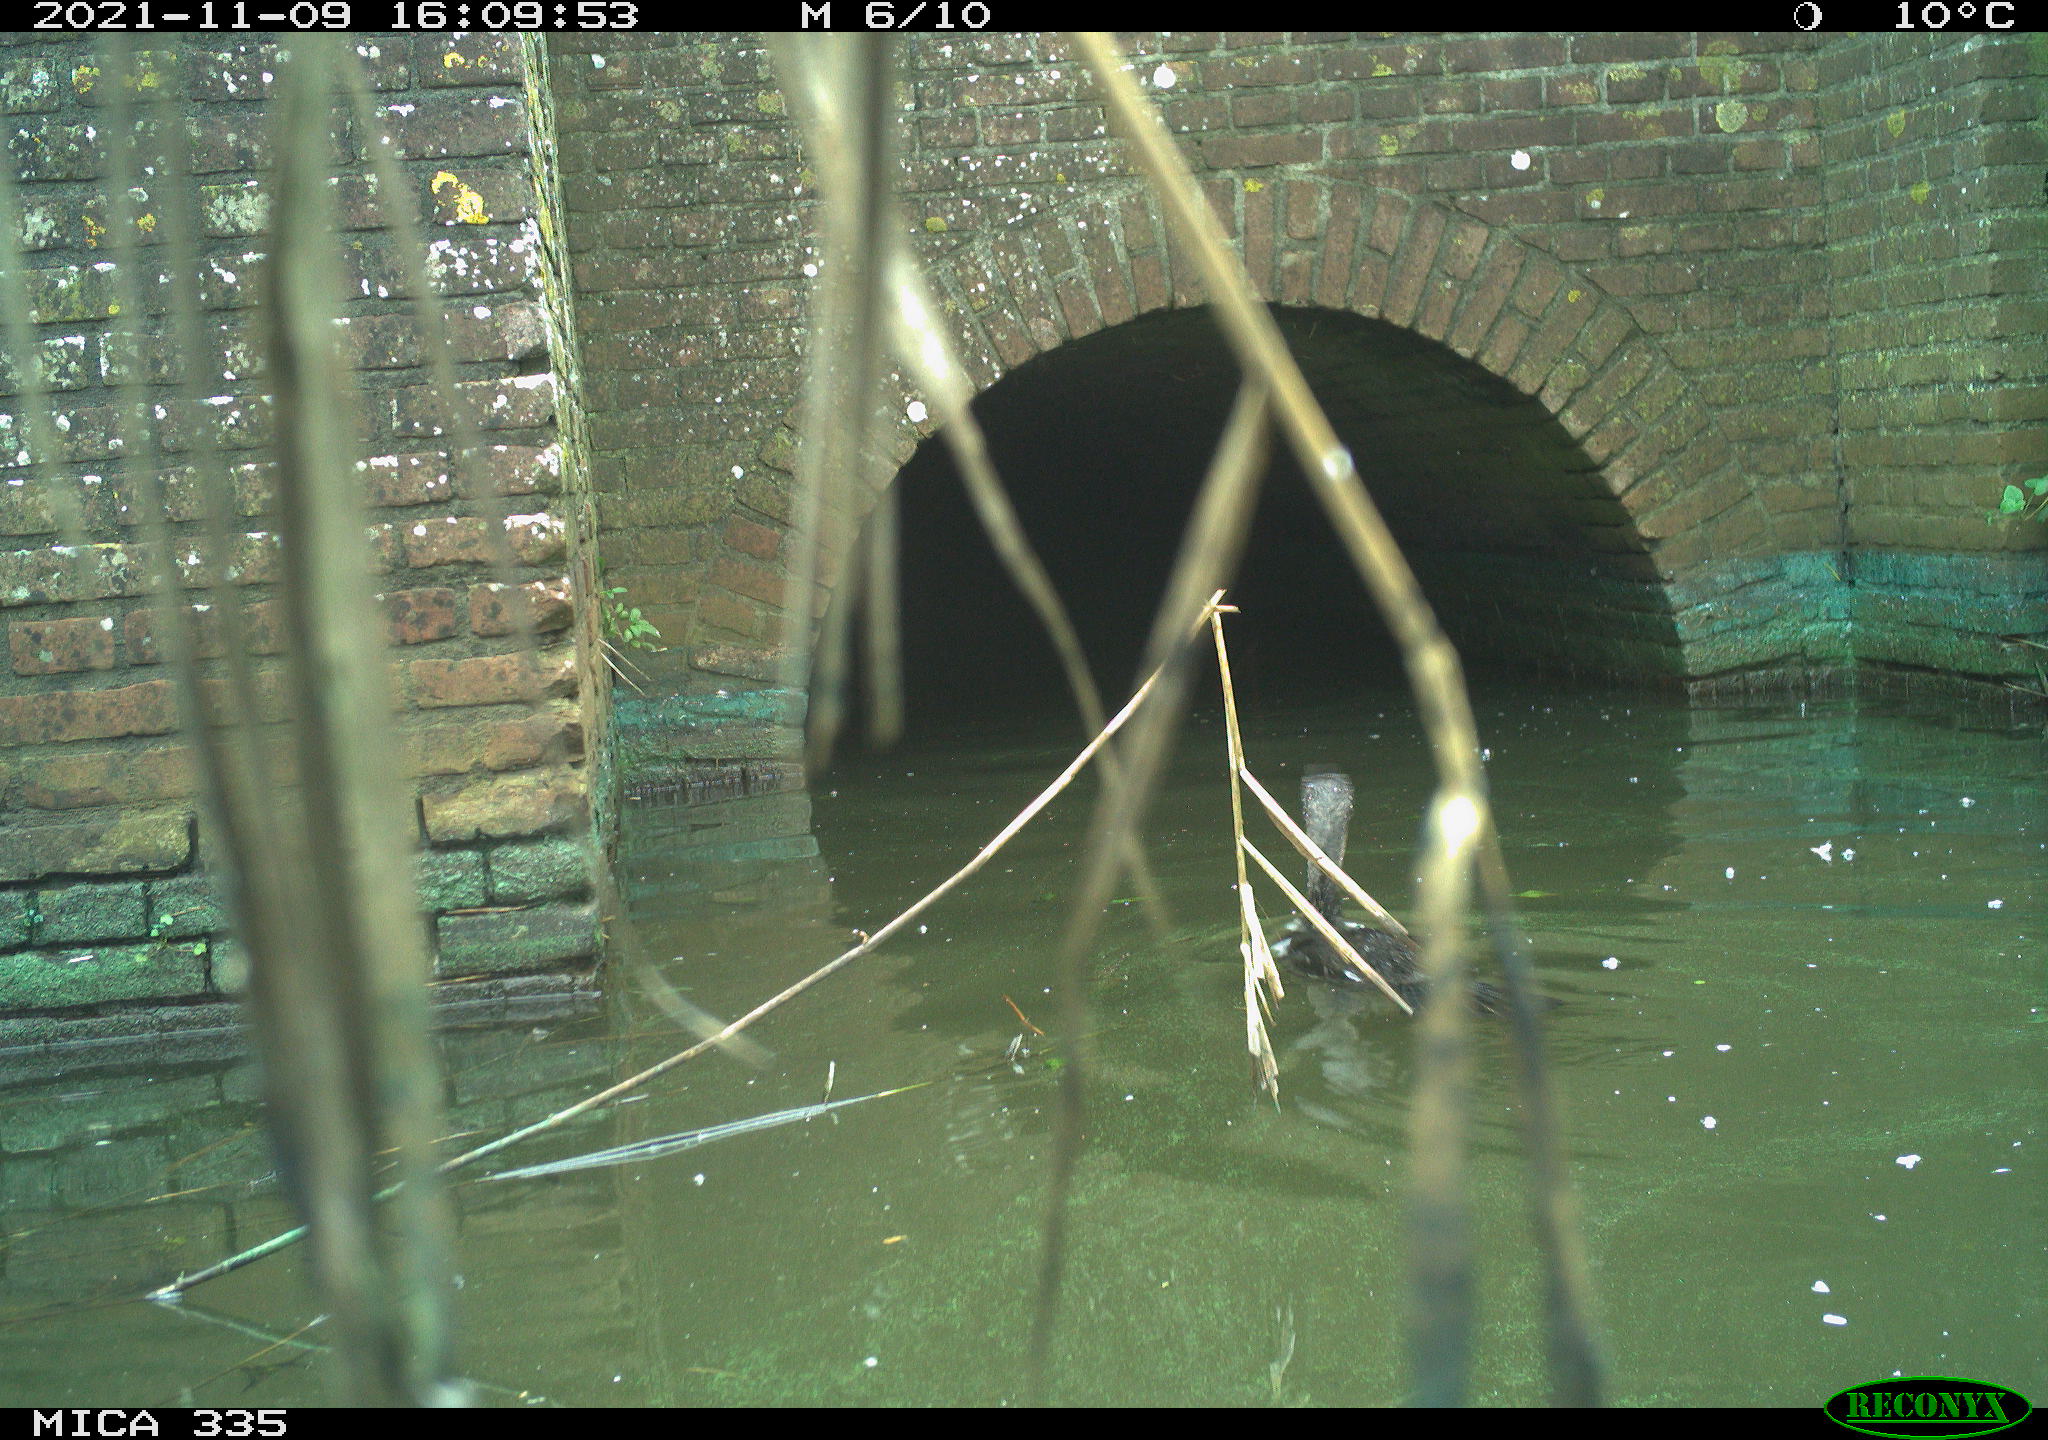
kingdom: Animalia
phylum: Chordata
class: Aves
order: Suliformes
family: Phalacrocoracidae
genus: Phalacrocorax
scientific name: Phalacrocorax carbo
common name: Great cormorant
